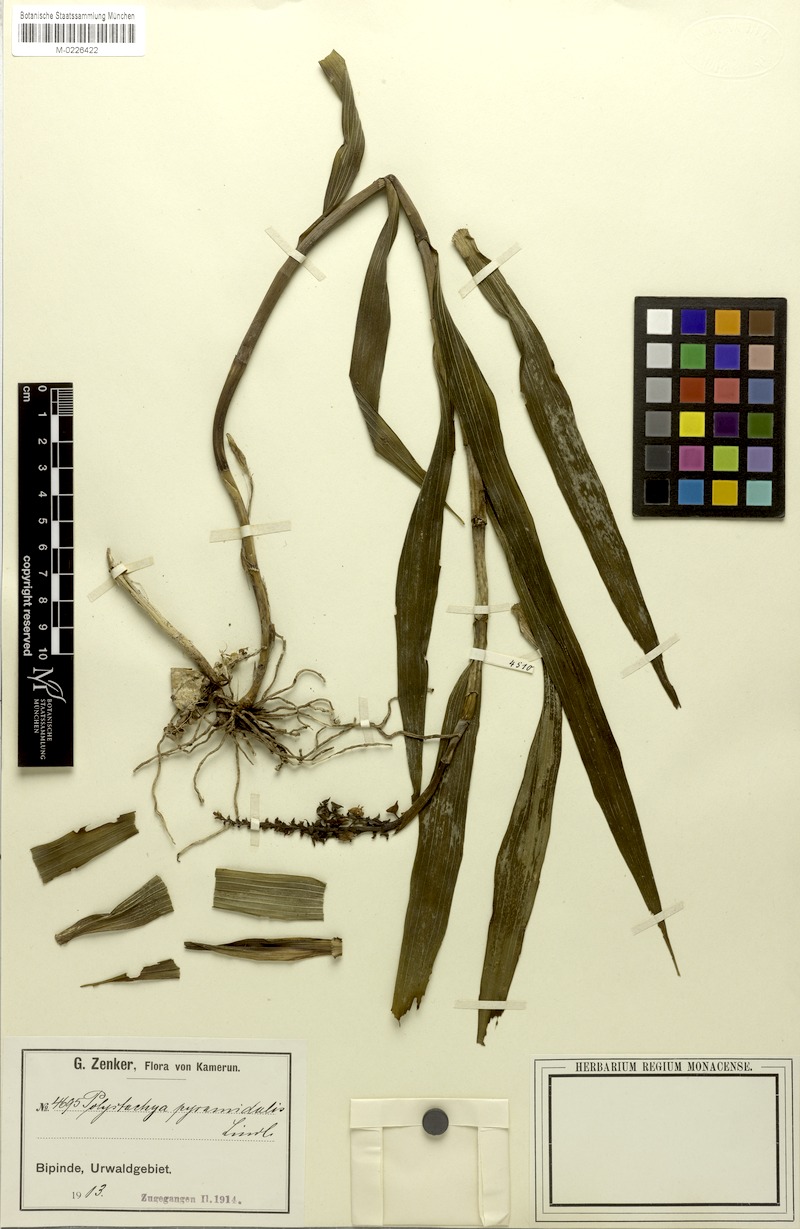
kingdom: Plantae
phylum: Tracheophyta
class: Liliopsida
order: Asparagales
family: Orchidaceae
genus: Polystachya
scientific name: Polystachya pyramidalis
